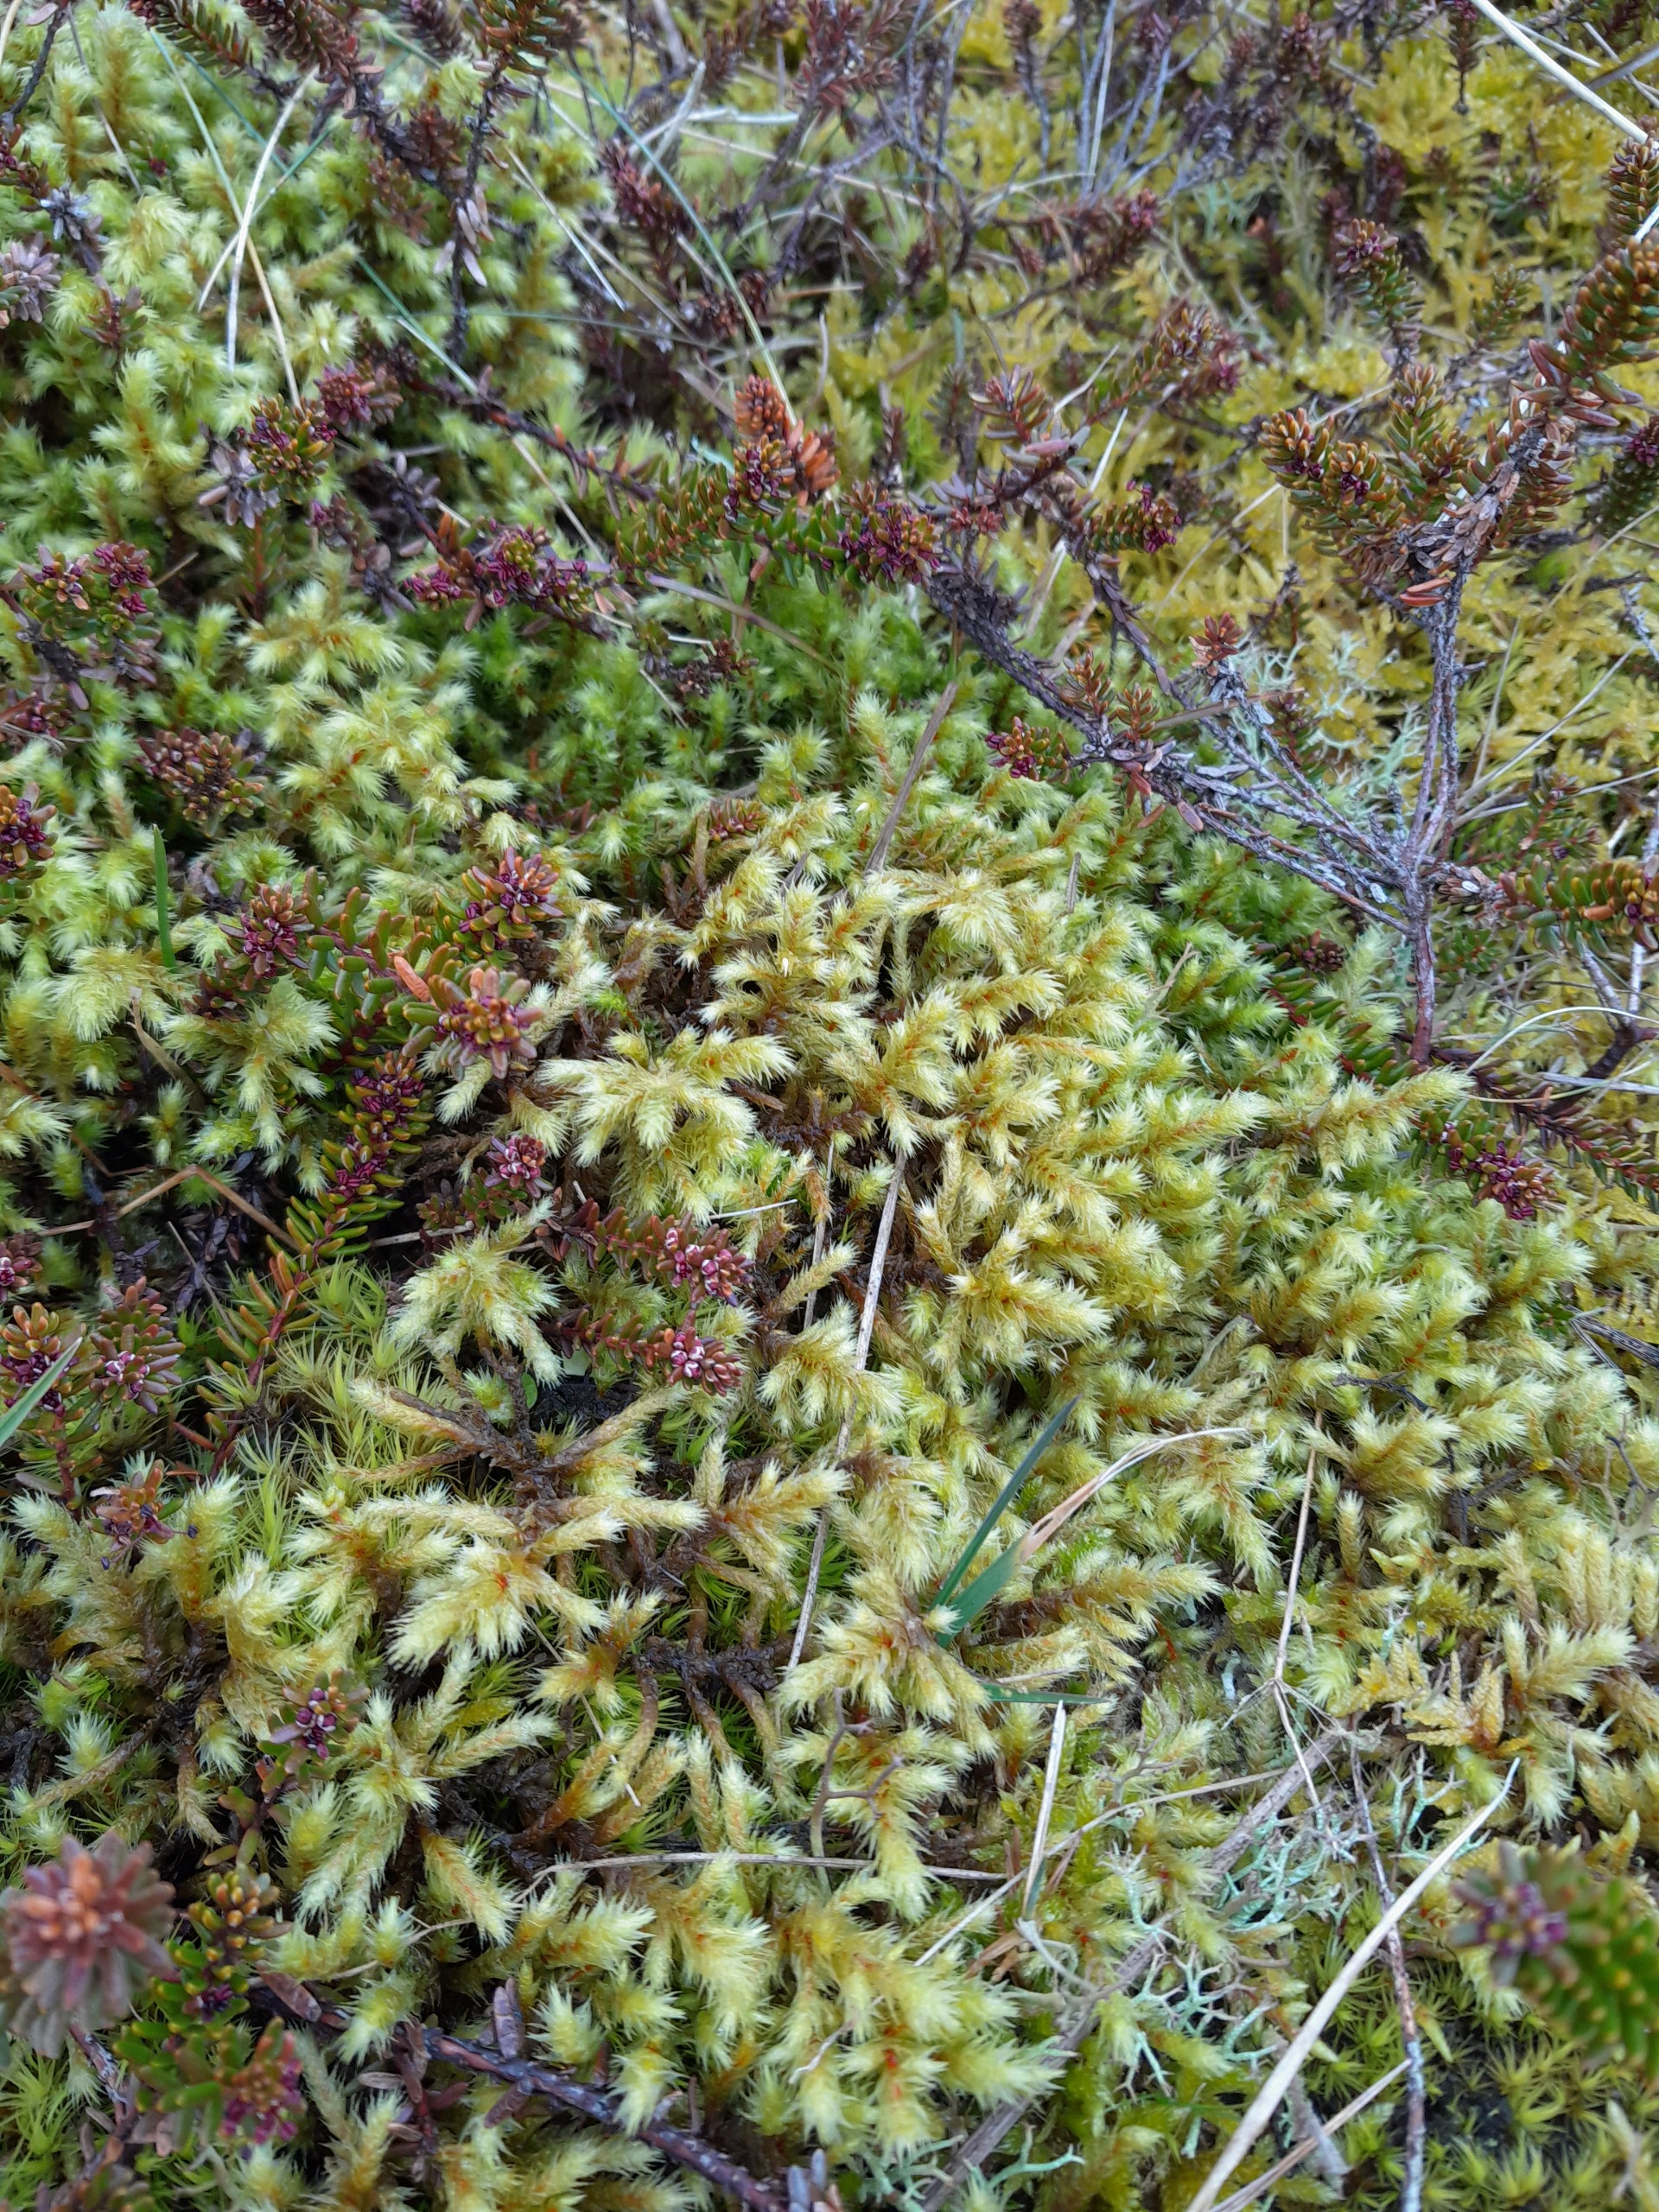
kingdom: Plantae
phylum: Bryophyta
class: Bryopsida
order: Hypnales
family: Hylocomiaceae
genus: Hylocomiadelphus
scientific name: Hylocomiadelphus triquetrus
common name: Stor kransemos
